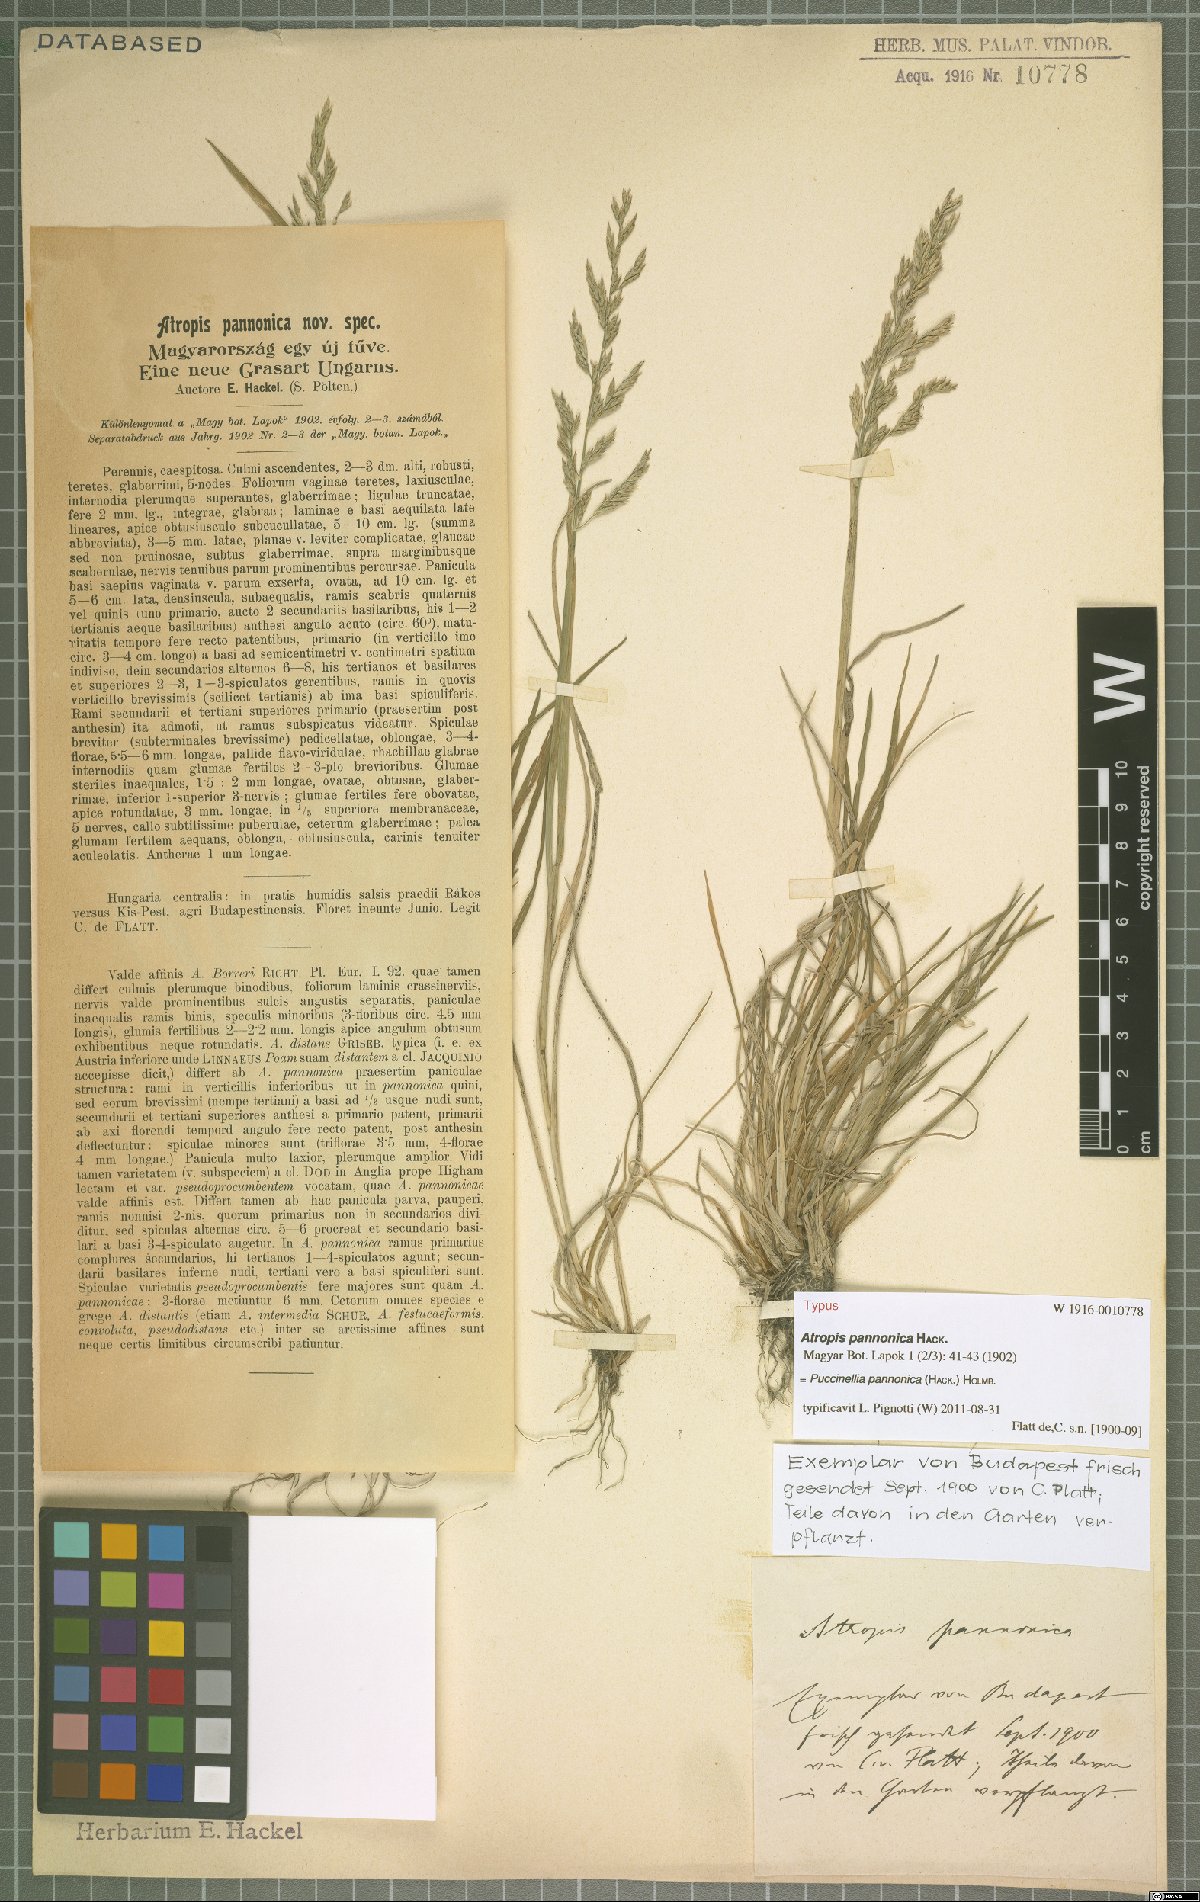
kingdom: Plantae
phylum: Tracheophyta
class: Liliopsida
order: Poales
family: Poaceae
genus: Puccinellia
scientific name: Puccinellia pannonica
